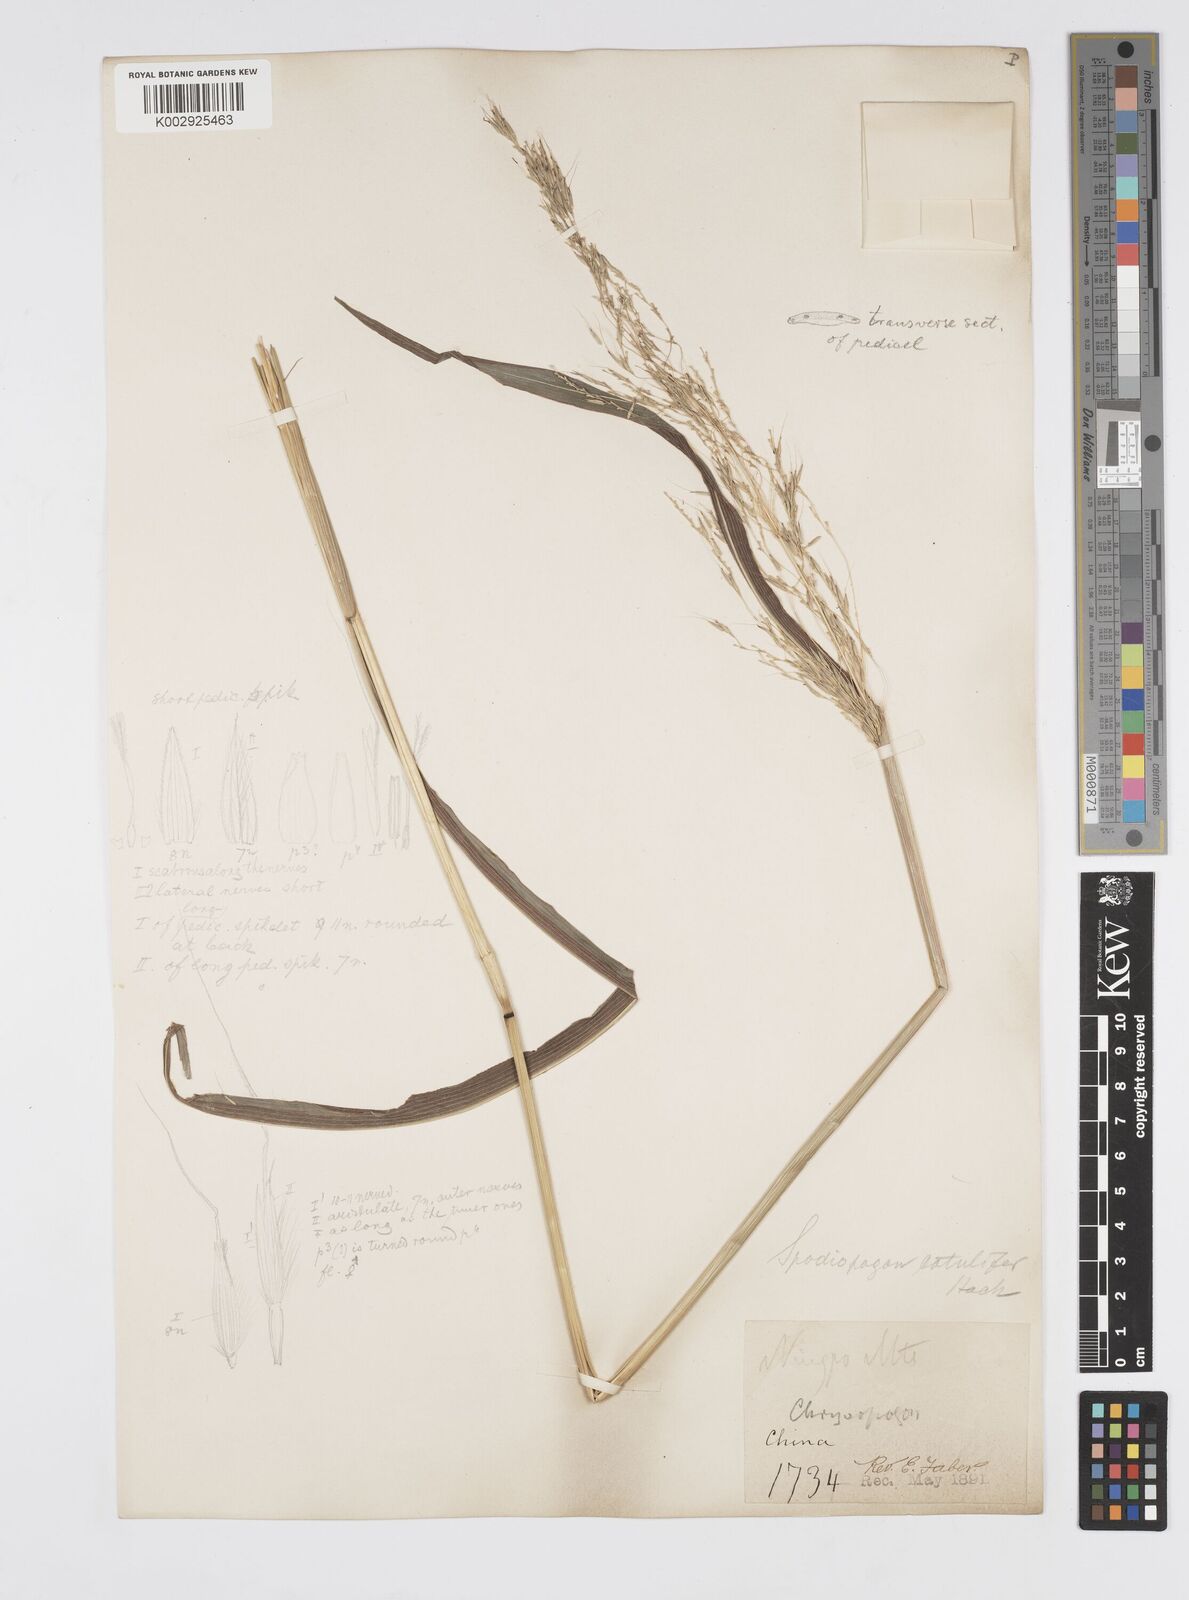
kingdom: Plantae
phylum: Tracheophyta
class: Liliopsida
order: Poales
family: Poaceae
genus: Spodiopogon
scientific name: Spodiopogon cotulifer
